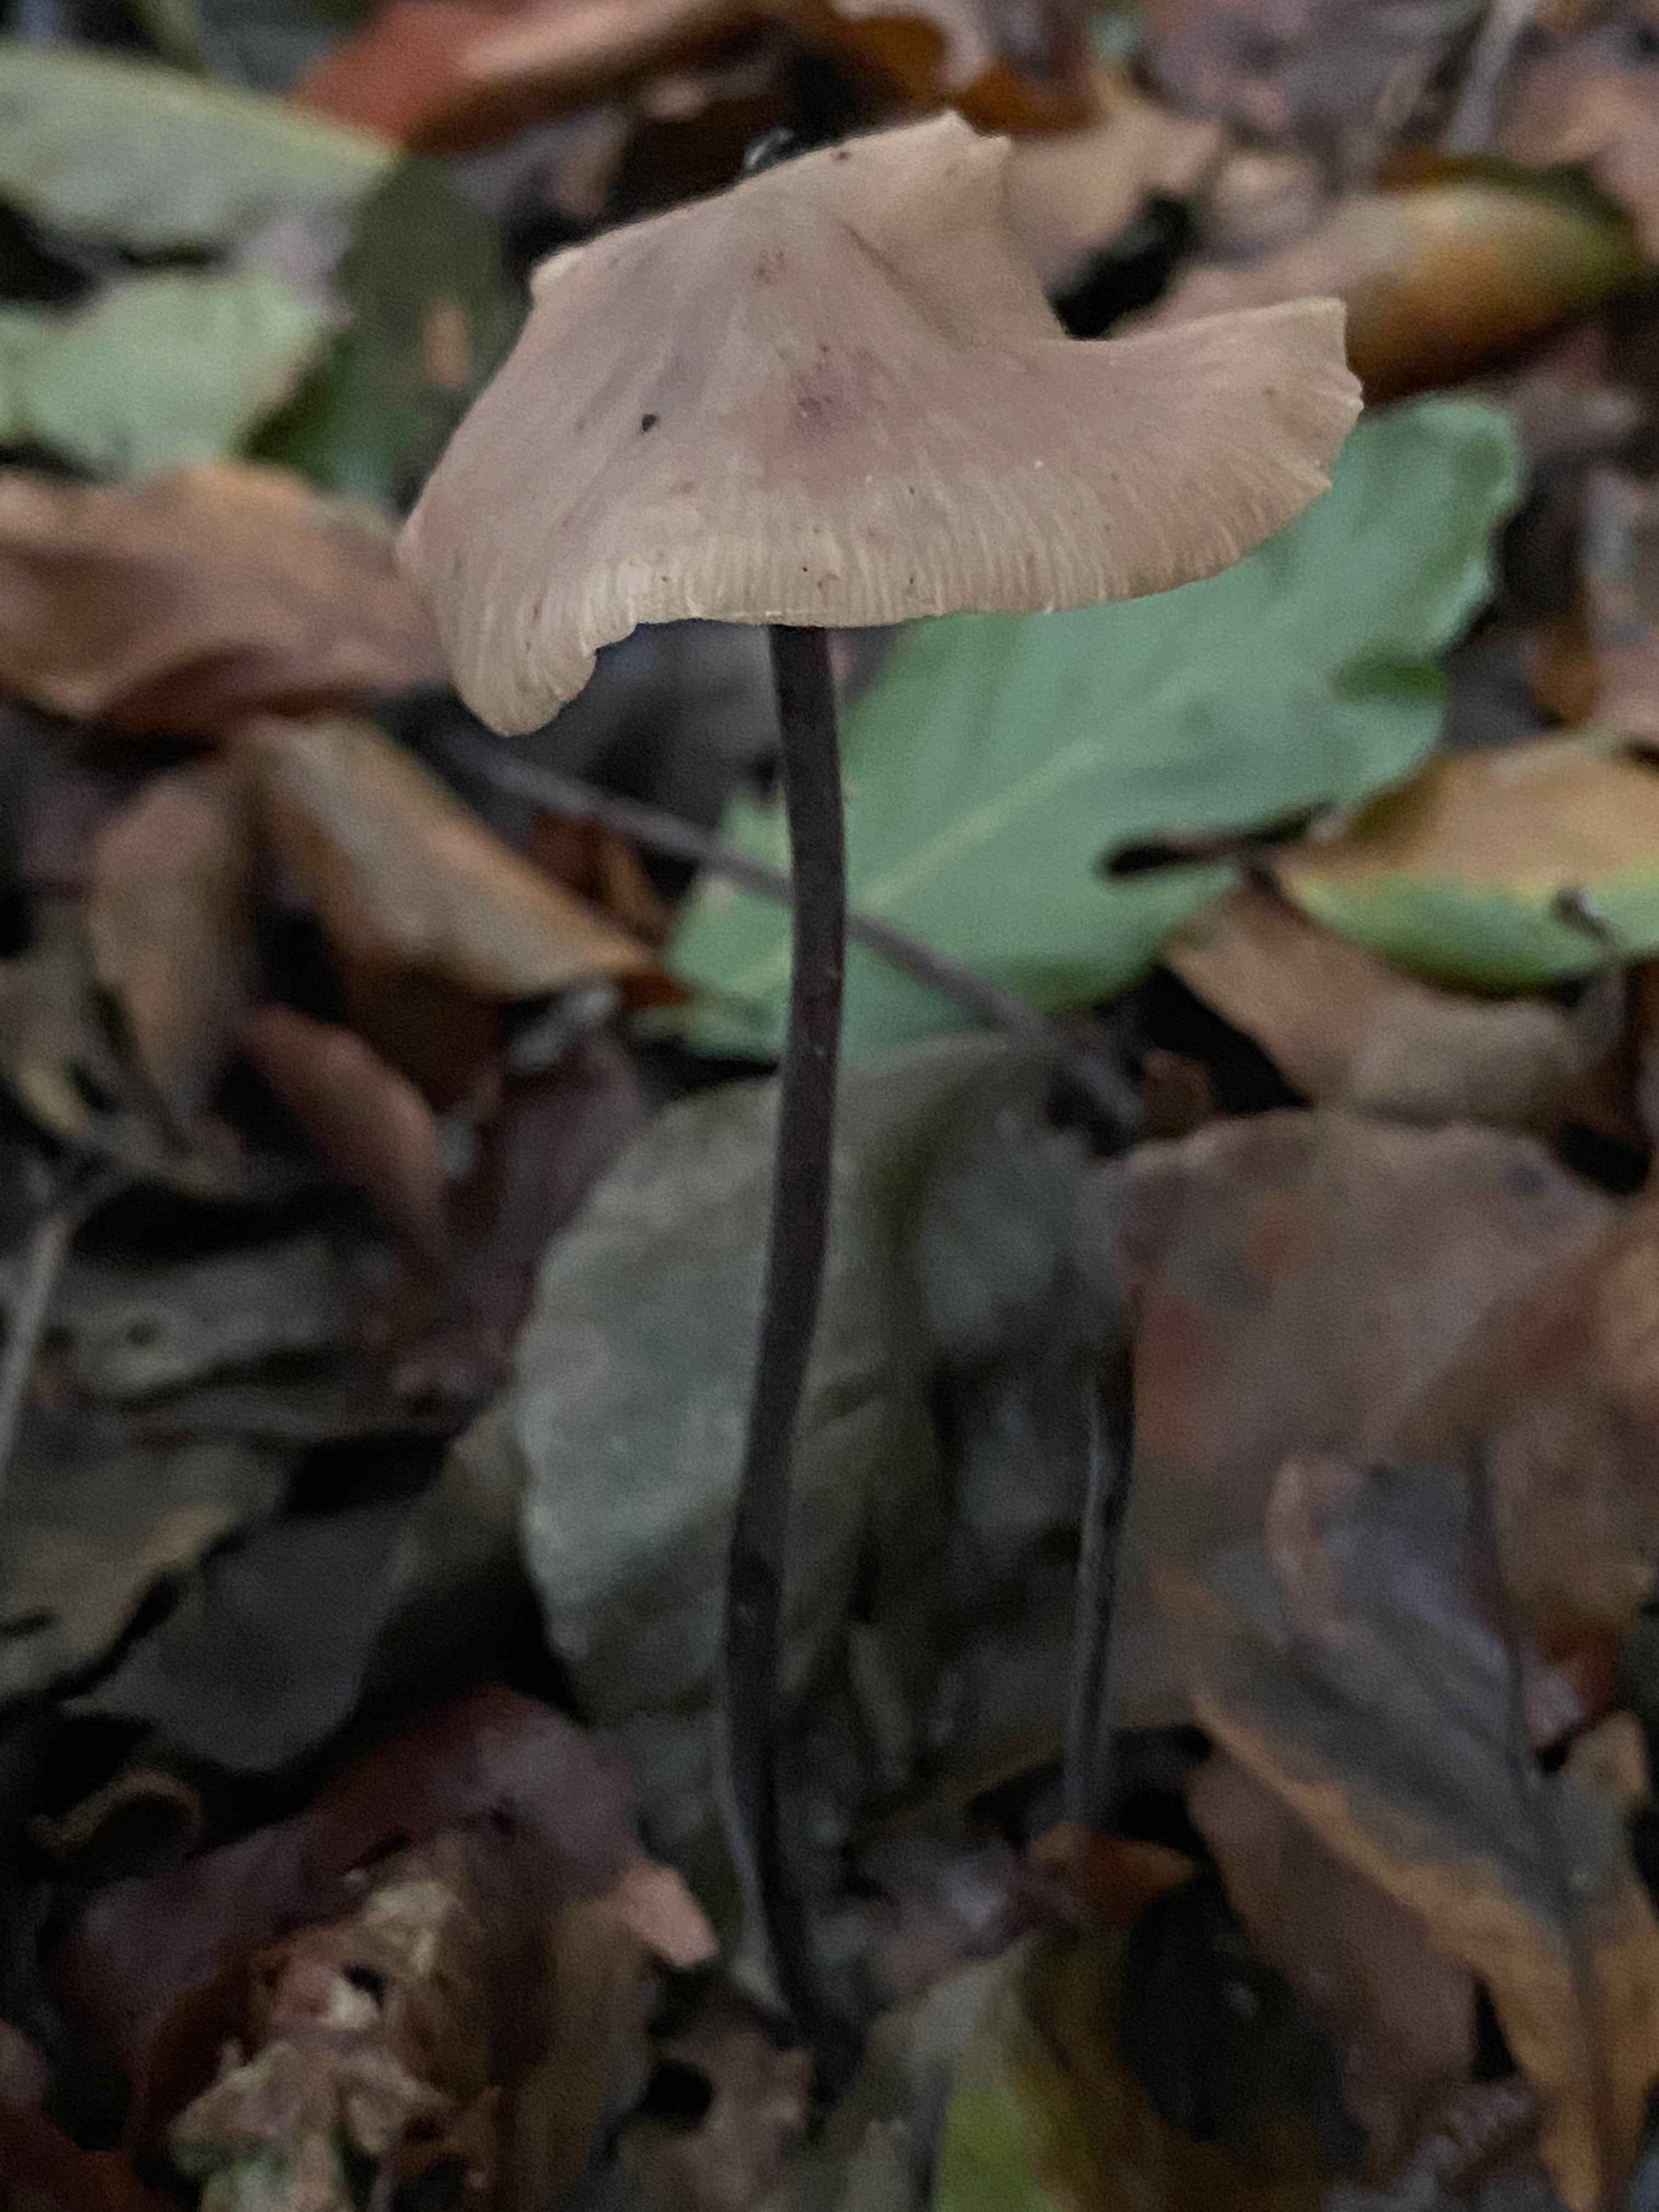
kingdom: Fungi
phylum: Basidiomycota
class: Agaricomycetes
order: Agaricales
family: Omphalotaceae
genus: Mycetinis
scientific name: Mycetinis alliaceus
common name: stor løghat
